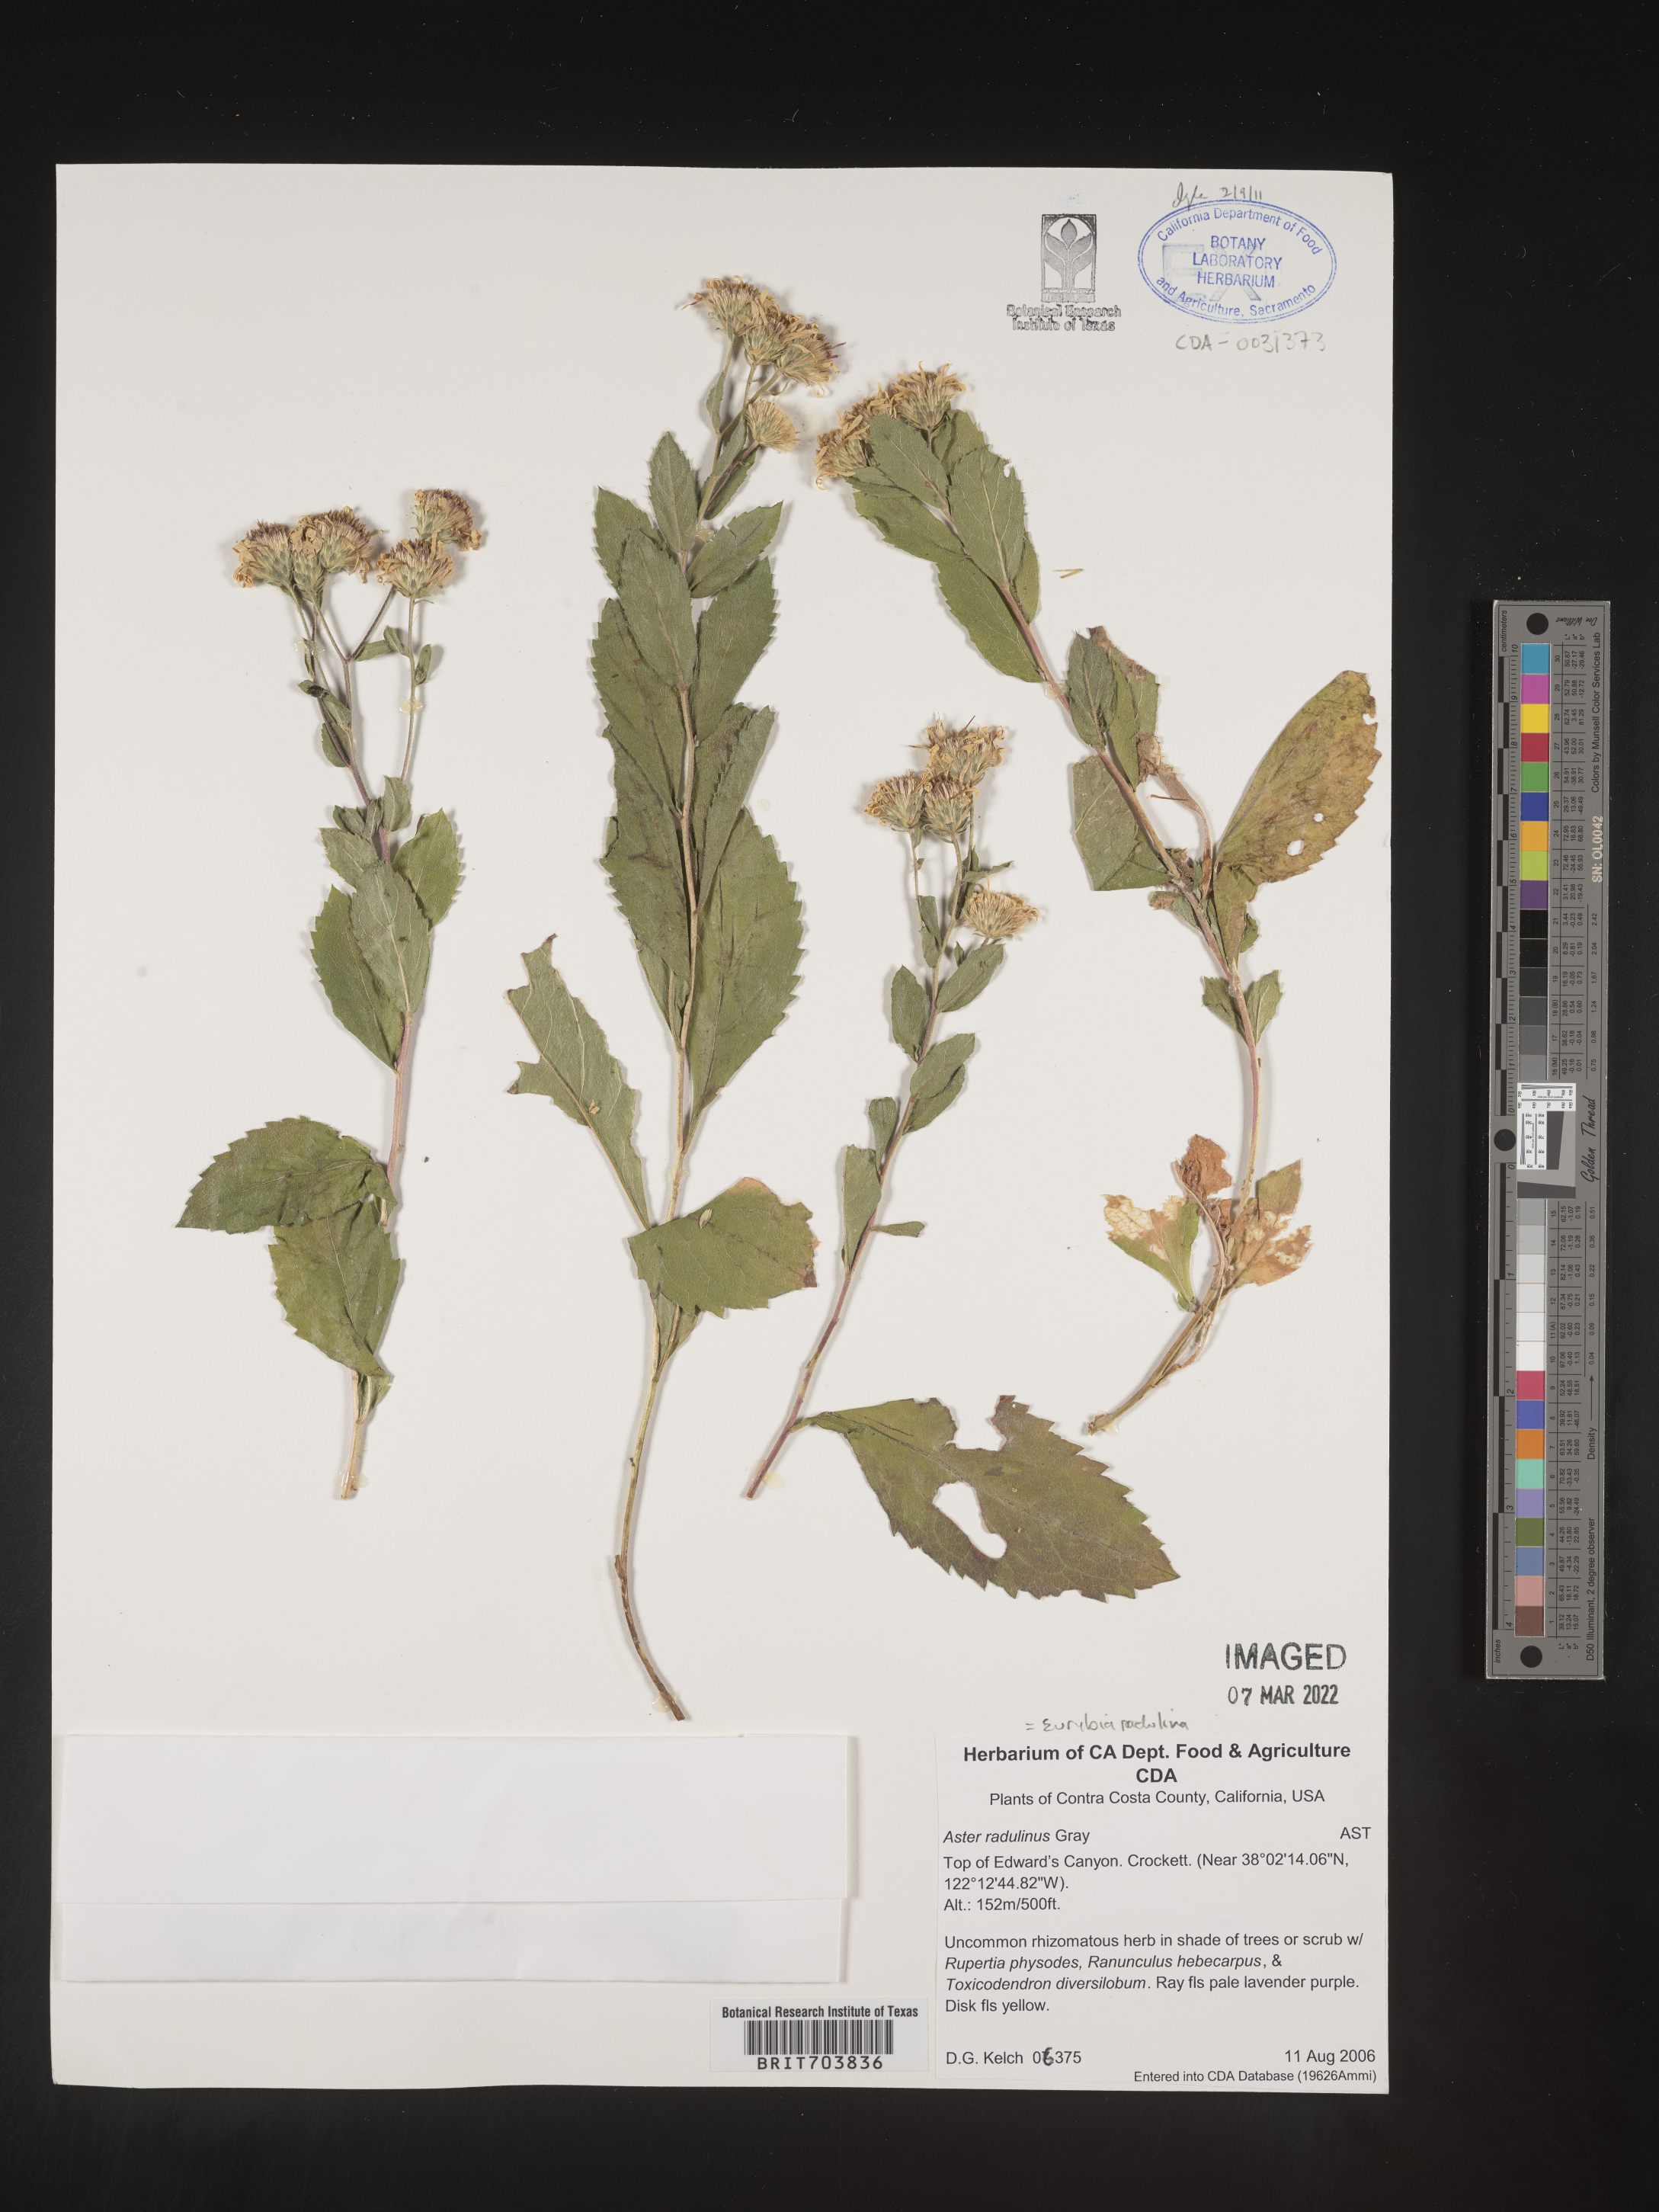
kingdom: Plantae
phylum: Tracheophyta
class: Magnoliopsida
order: Asterales
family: Asteraceae
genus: Eurybia
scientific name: Eurybia radulina
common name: Rough-leaved aster
